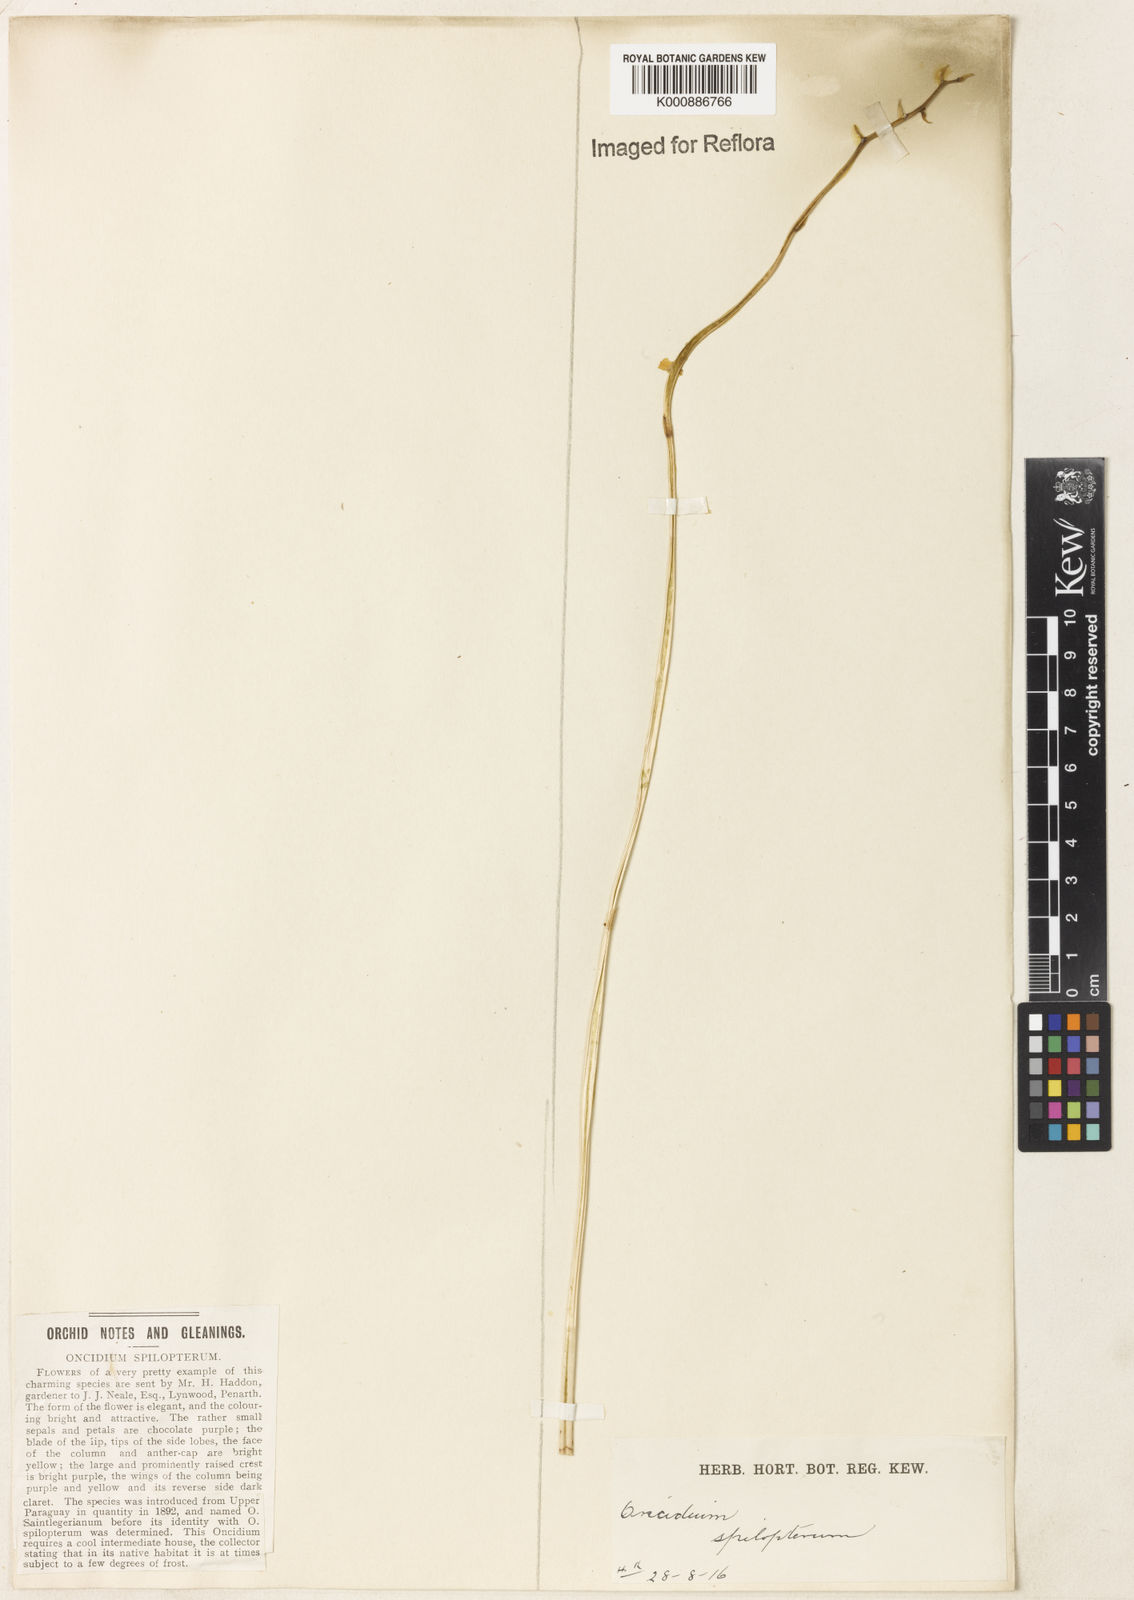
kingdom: Plantae
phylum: Tracheophyta
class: Liliopsida
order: Asparagales
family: Orchidaceae
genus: Gomesa
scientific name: Gomesa
